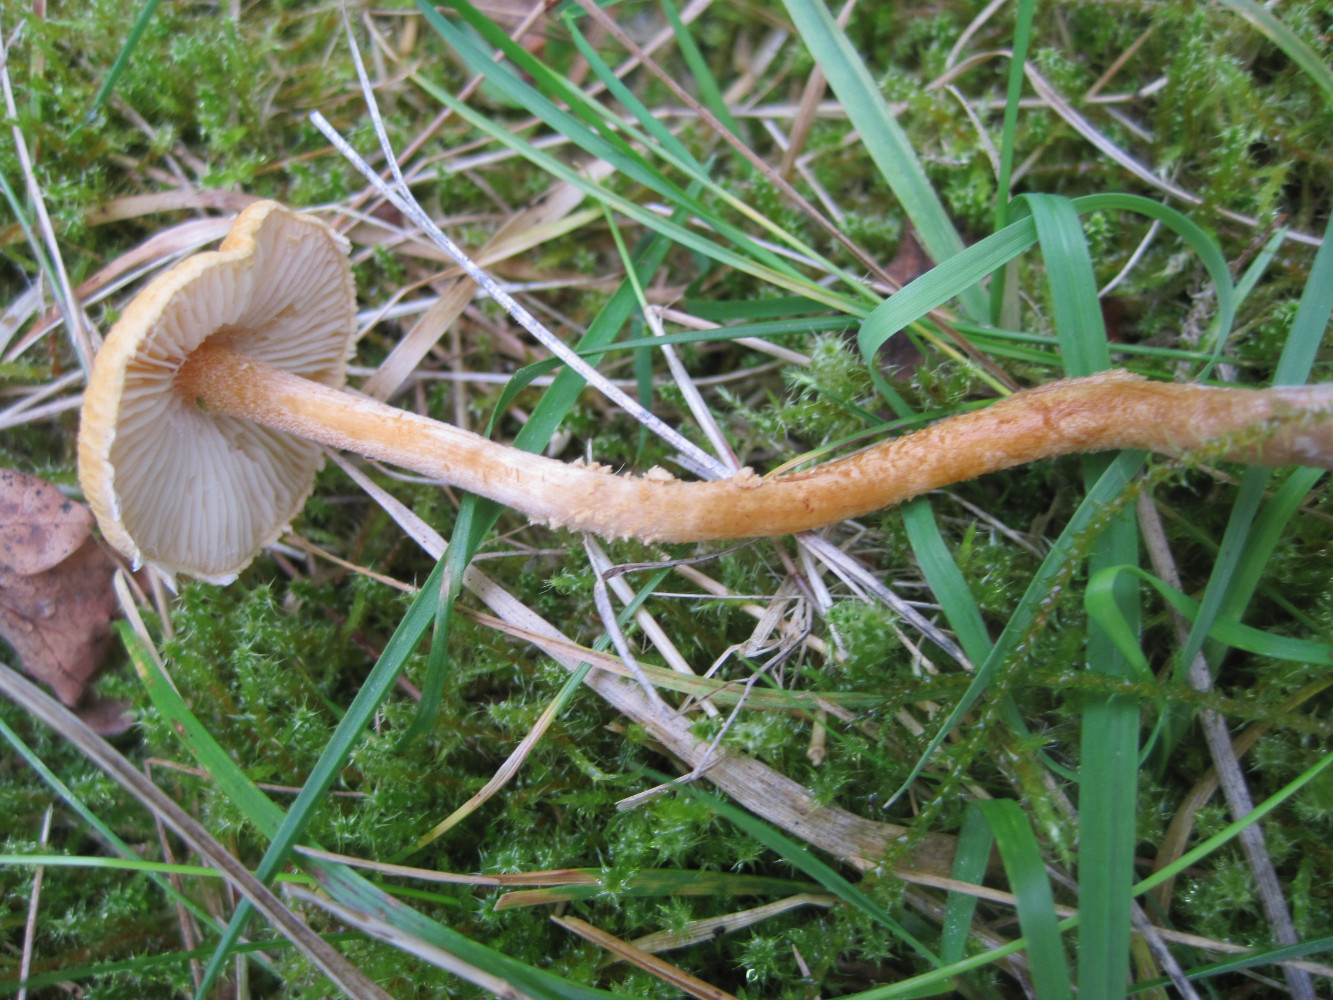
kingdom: Fungi
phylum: Basidiomycota
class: Agaricomycetes
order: Agaricales
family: Tricholomataceae
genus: Cystoderma
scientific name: Cystoderma amianthinum
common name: okkergul grynhat
